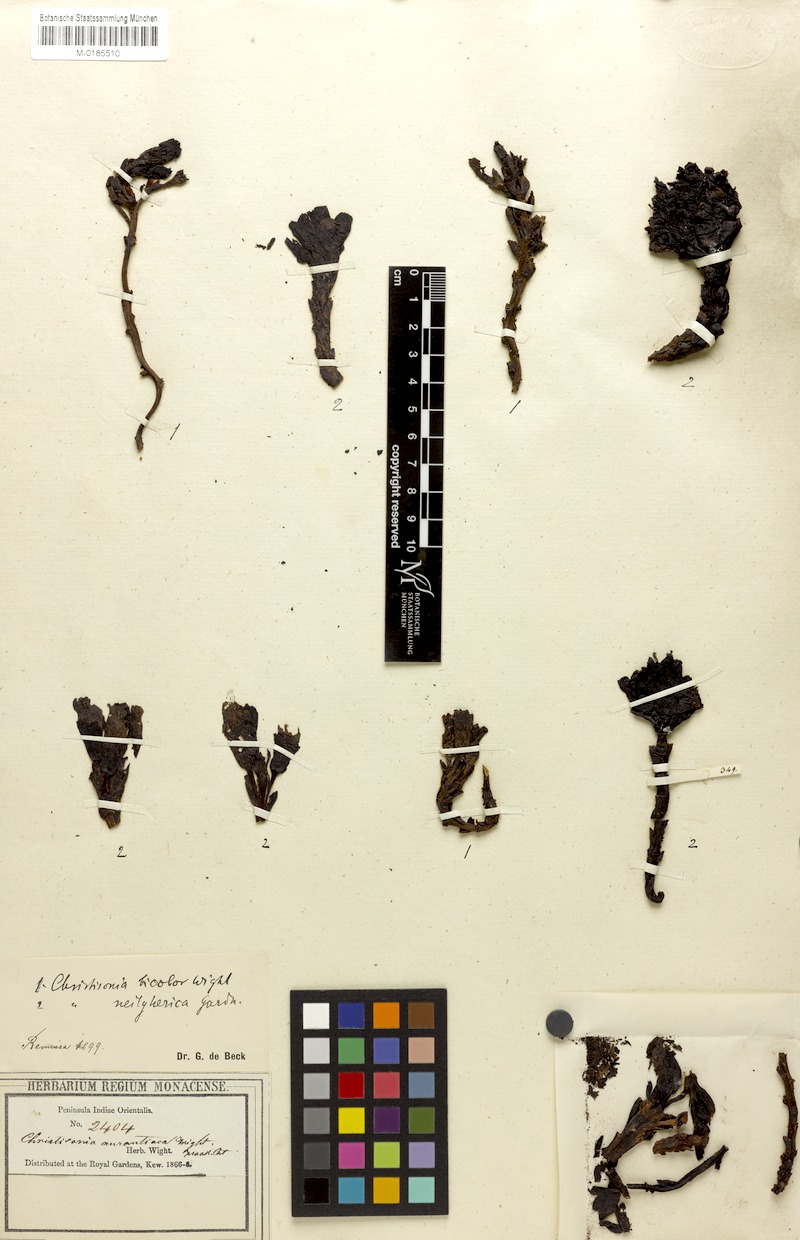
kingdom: Plantae
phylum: Tracheophyta
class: Magnoliopsida
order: Lamiales
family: Orobanchaceae
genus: Christisonia
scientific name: Christisonia bicolor
